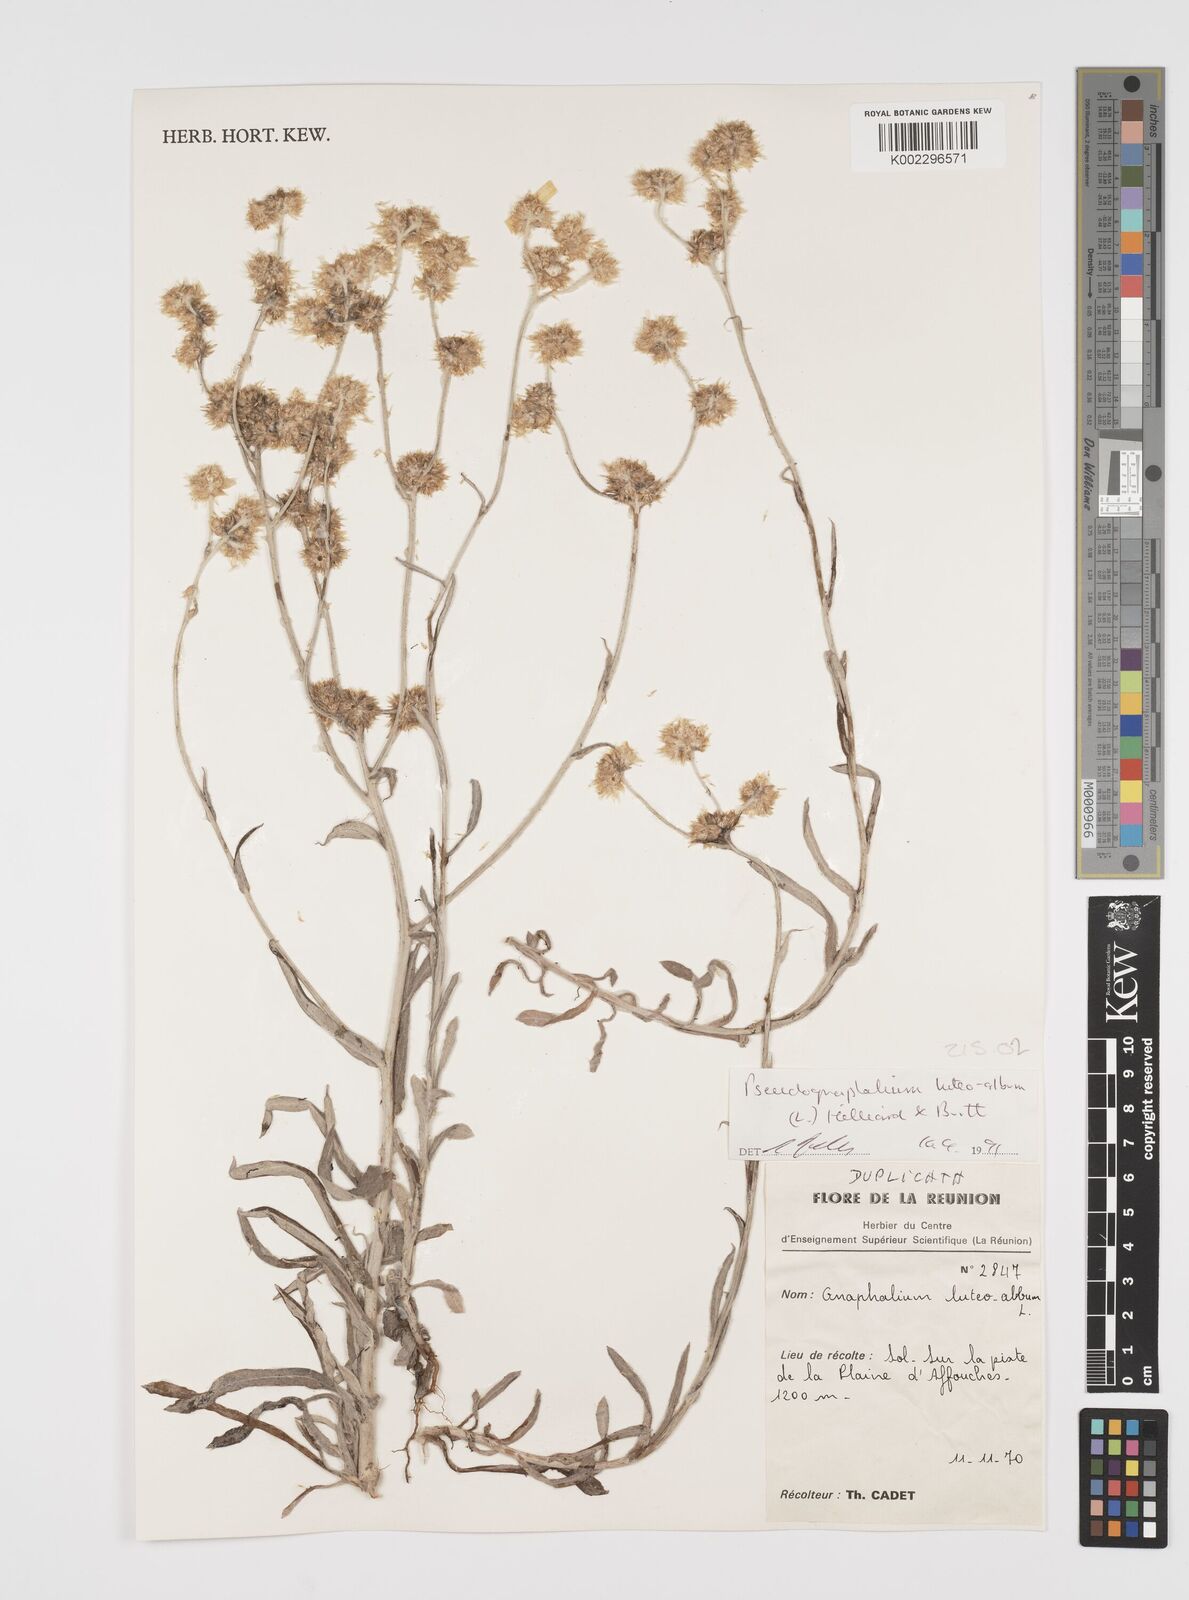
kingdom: Plantae
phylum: Tracheophyta
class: Magnoliopsida
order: Asterales
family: Asteraceae
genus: Helichrysum
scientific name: Helichrysum luteoalbum
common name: Daisy
